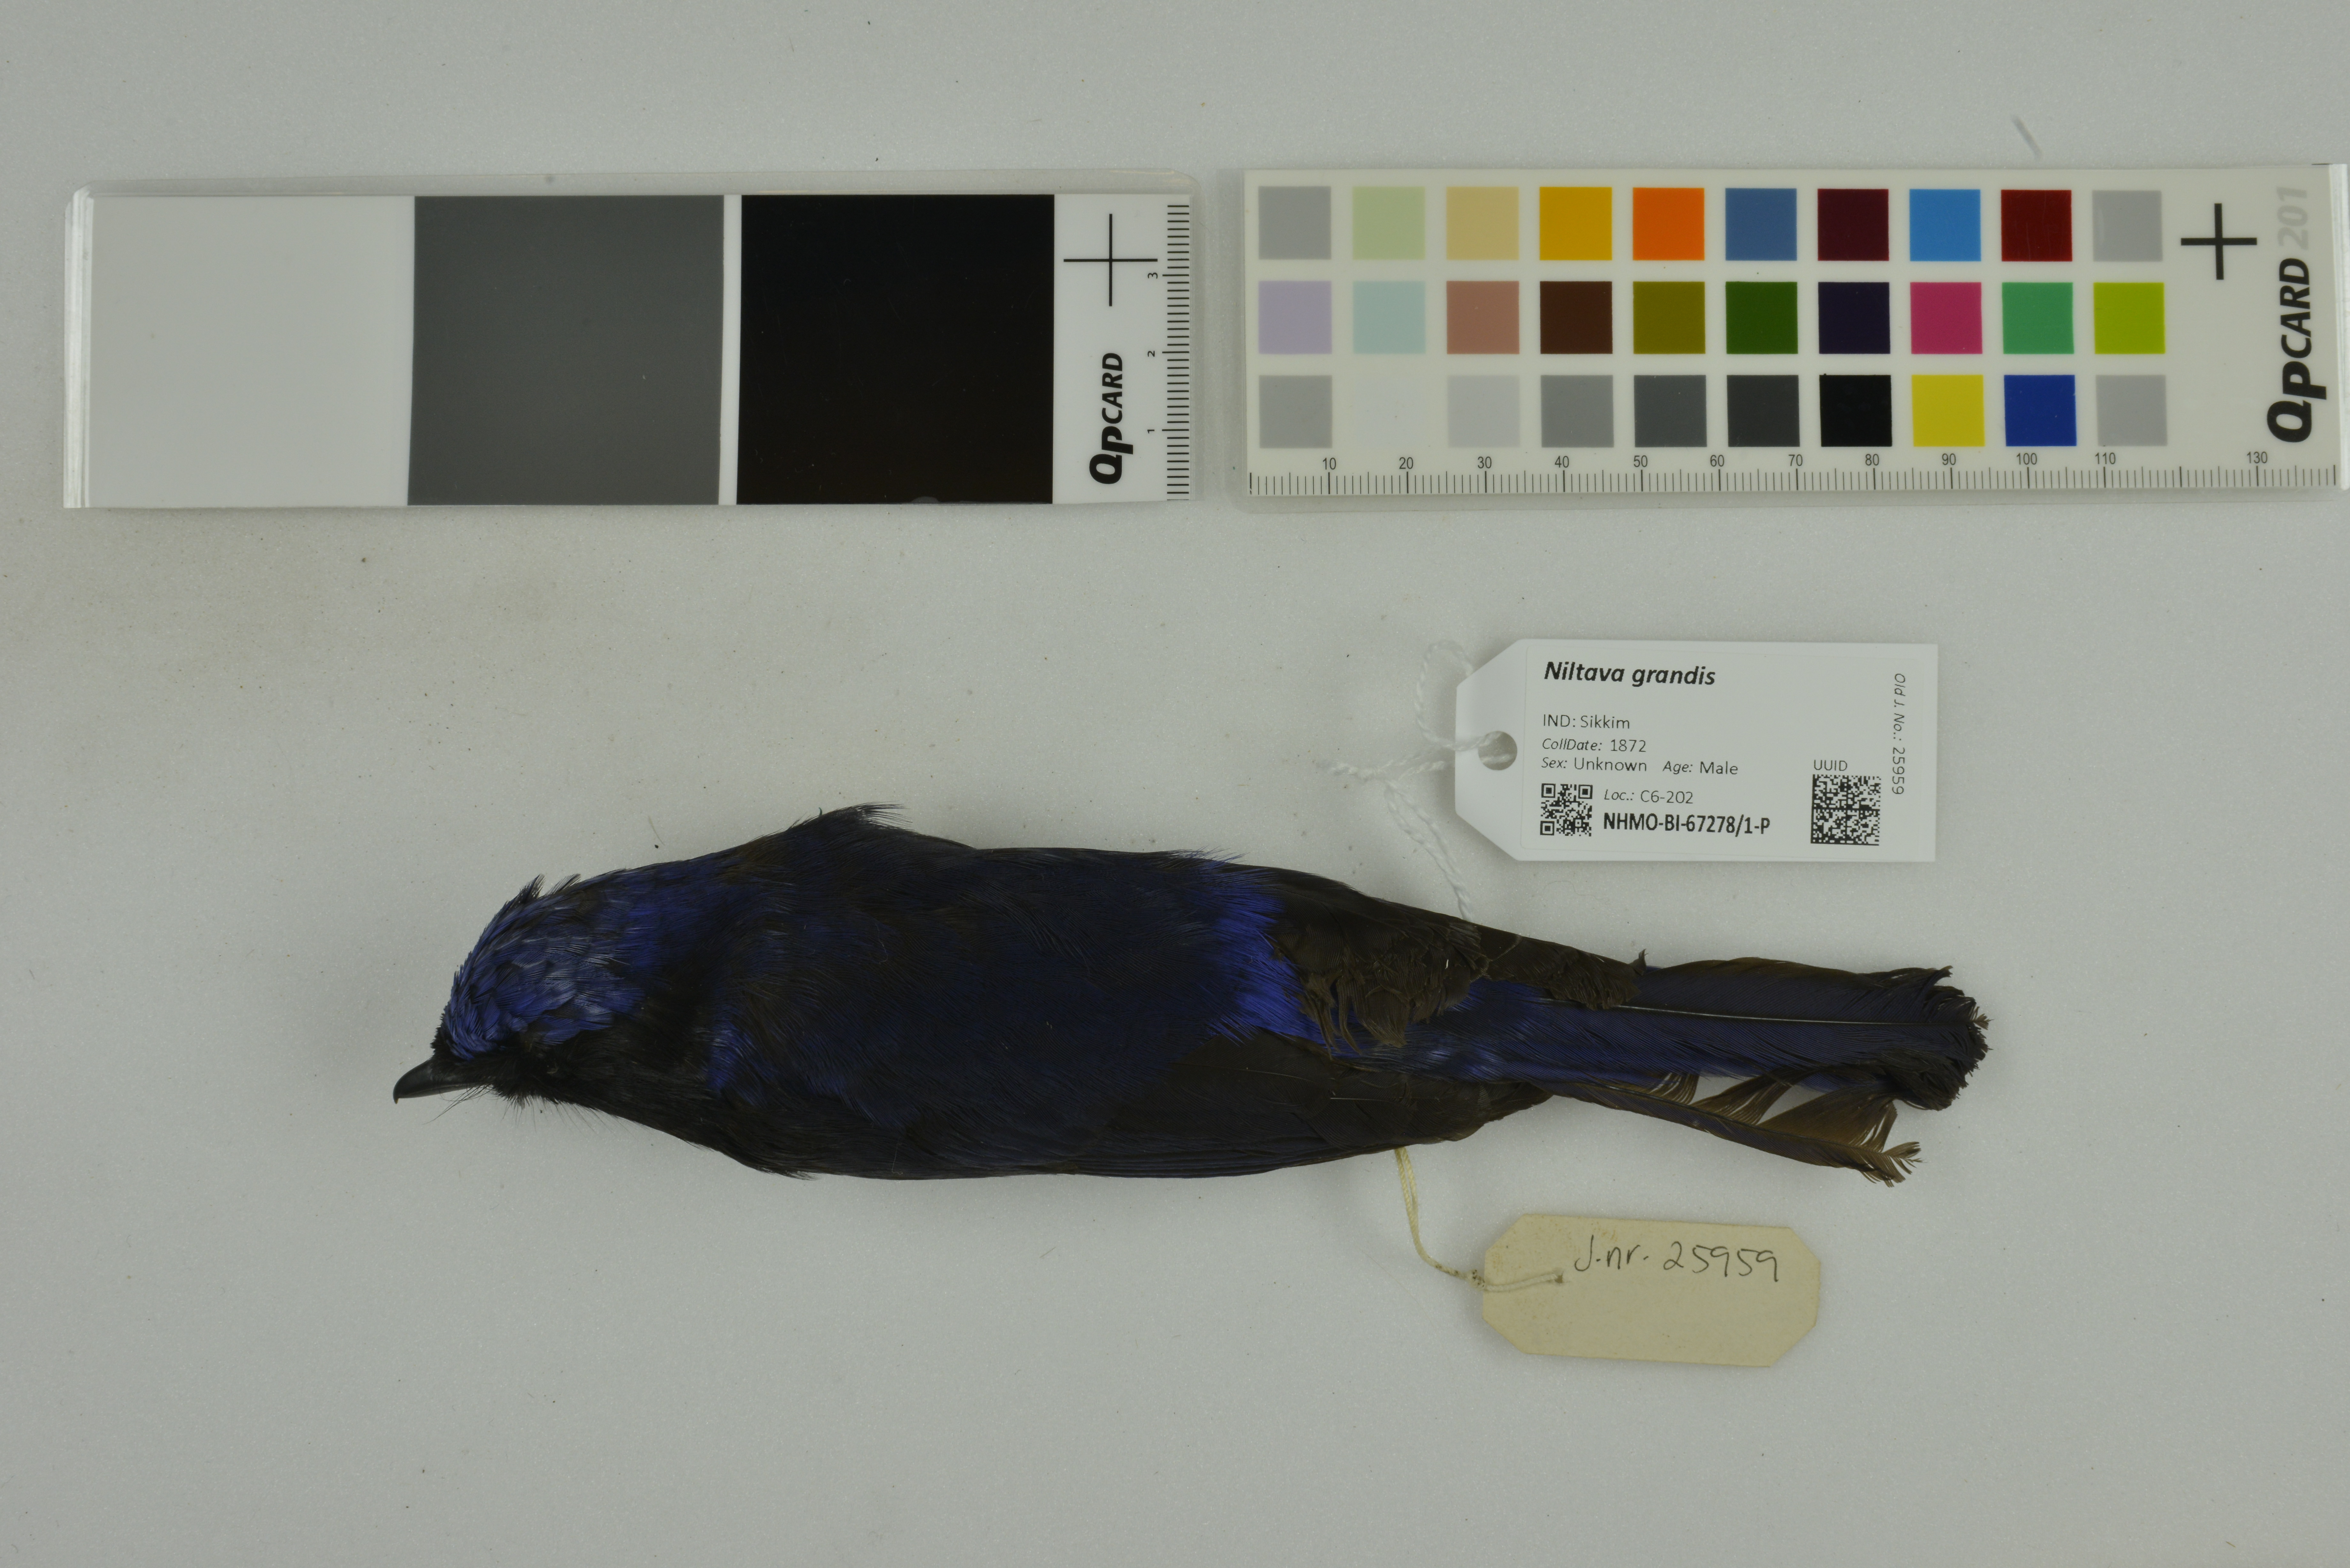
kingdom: Animalia
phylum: Chordata
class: Aves
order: Passeriformes
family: Muscicapidae
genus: Niltava
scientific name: Niltava grandis
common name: Large niltava
